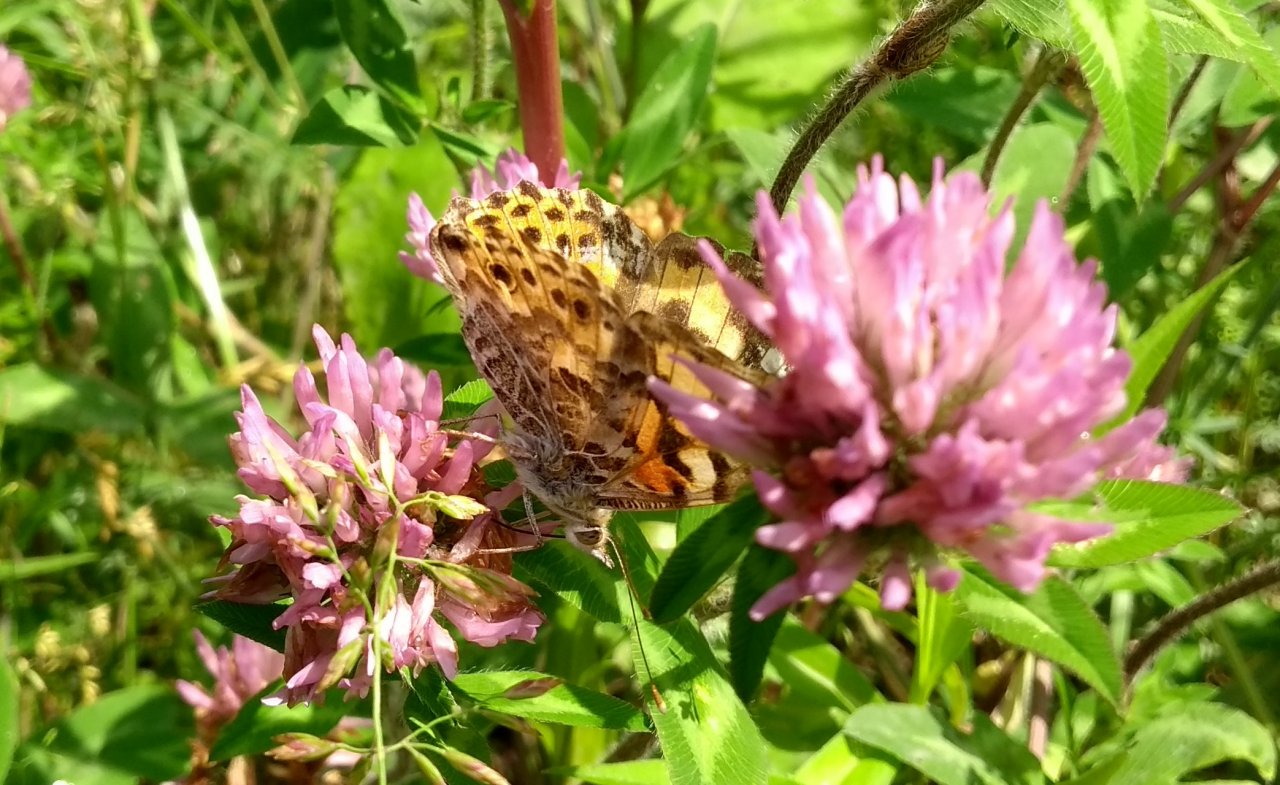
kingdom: Animalia
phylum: Arthropoda
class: Insecta
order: Lepidoptera
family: Nymphalidae
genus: Vanessa
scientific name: Vanessa cardui
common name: Painted Lady
